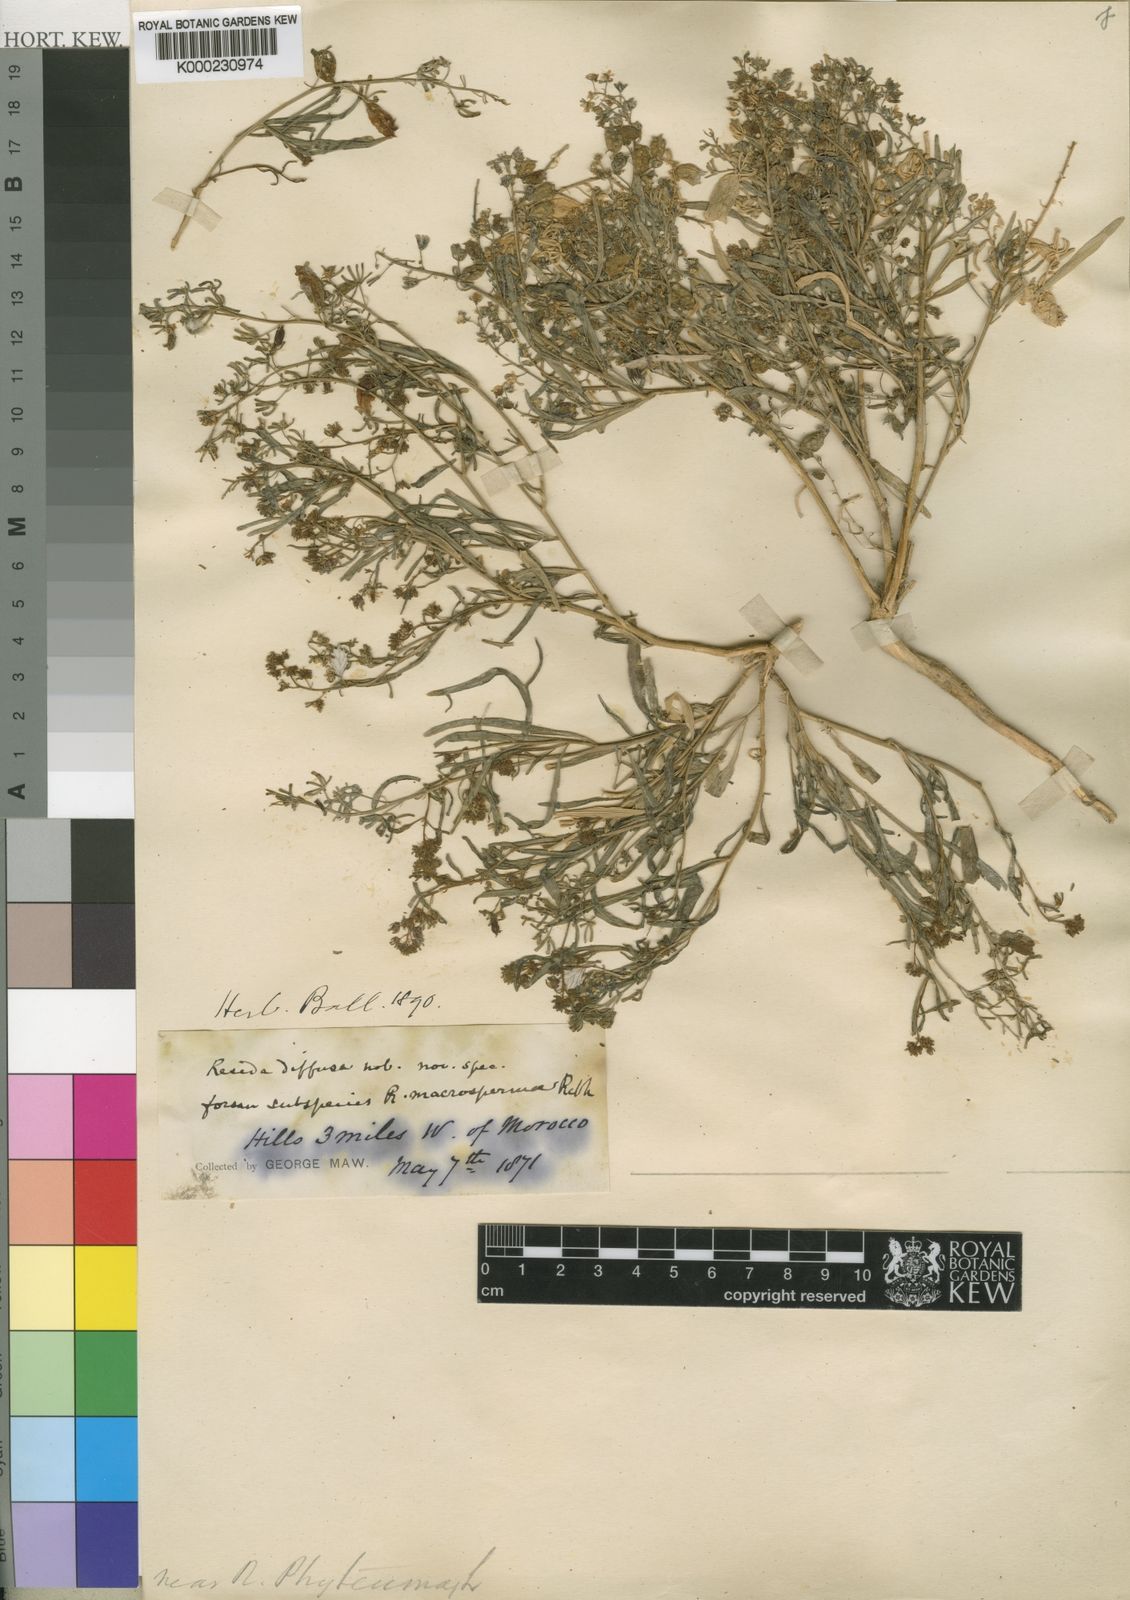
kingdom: Plantae
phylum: Tracheophyta
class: Magnoliopsida
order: Brassicales
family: Resedaceae
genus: Reseda
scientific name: Reseda diffusa
